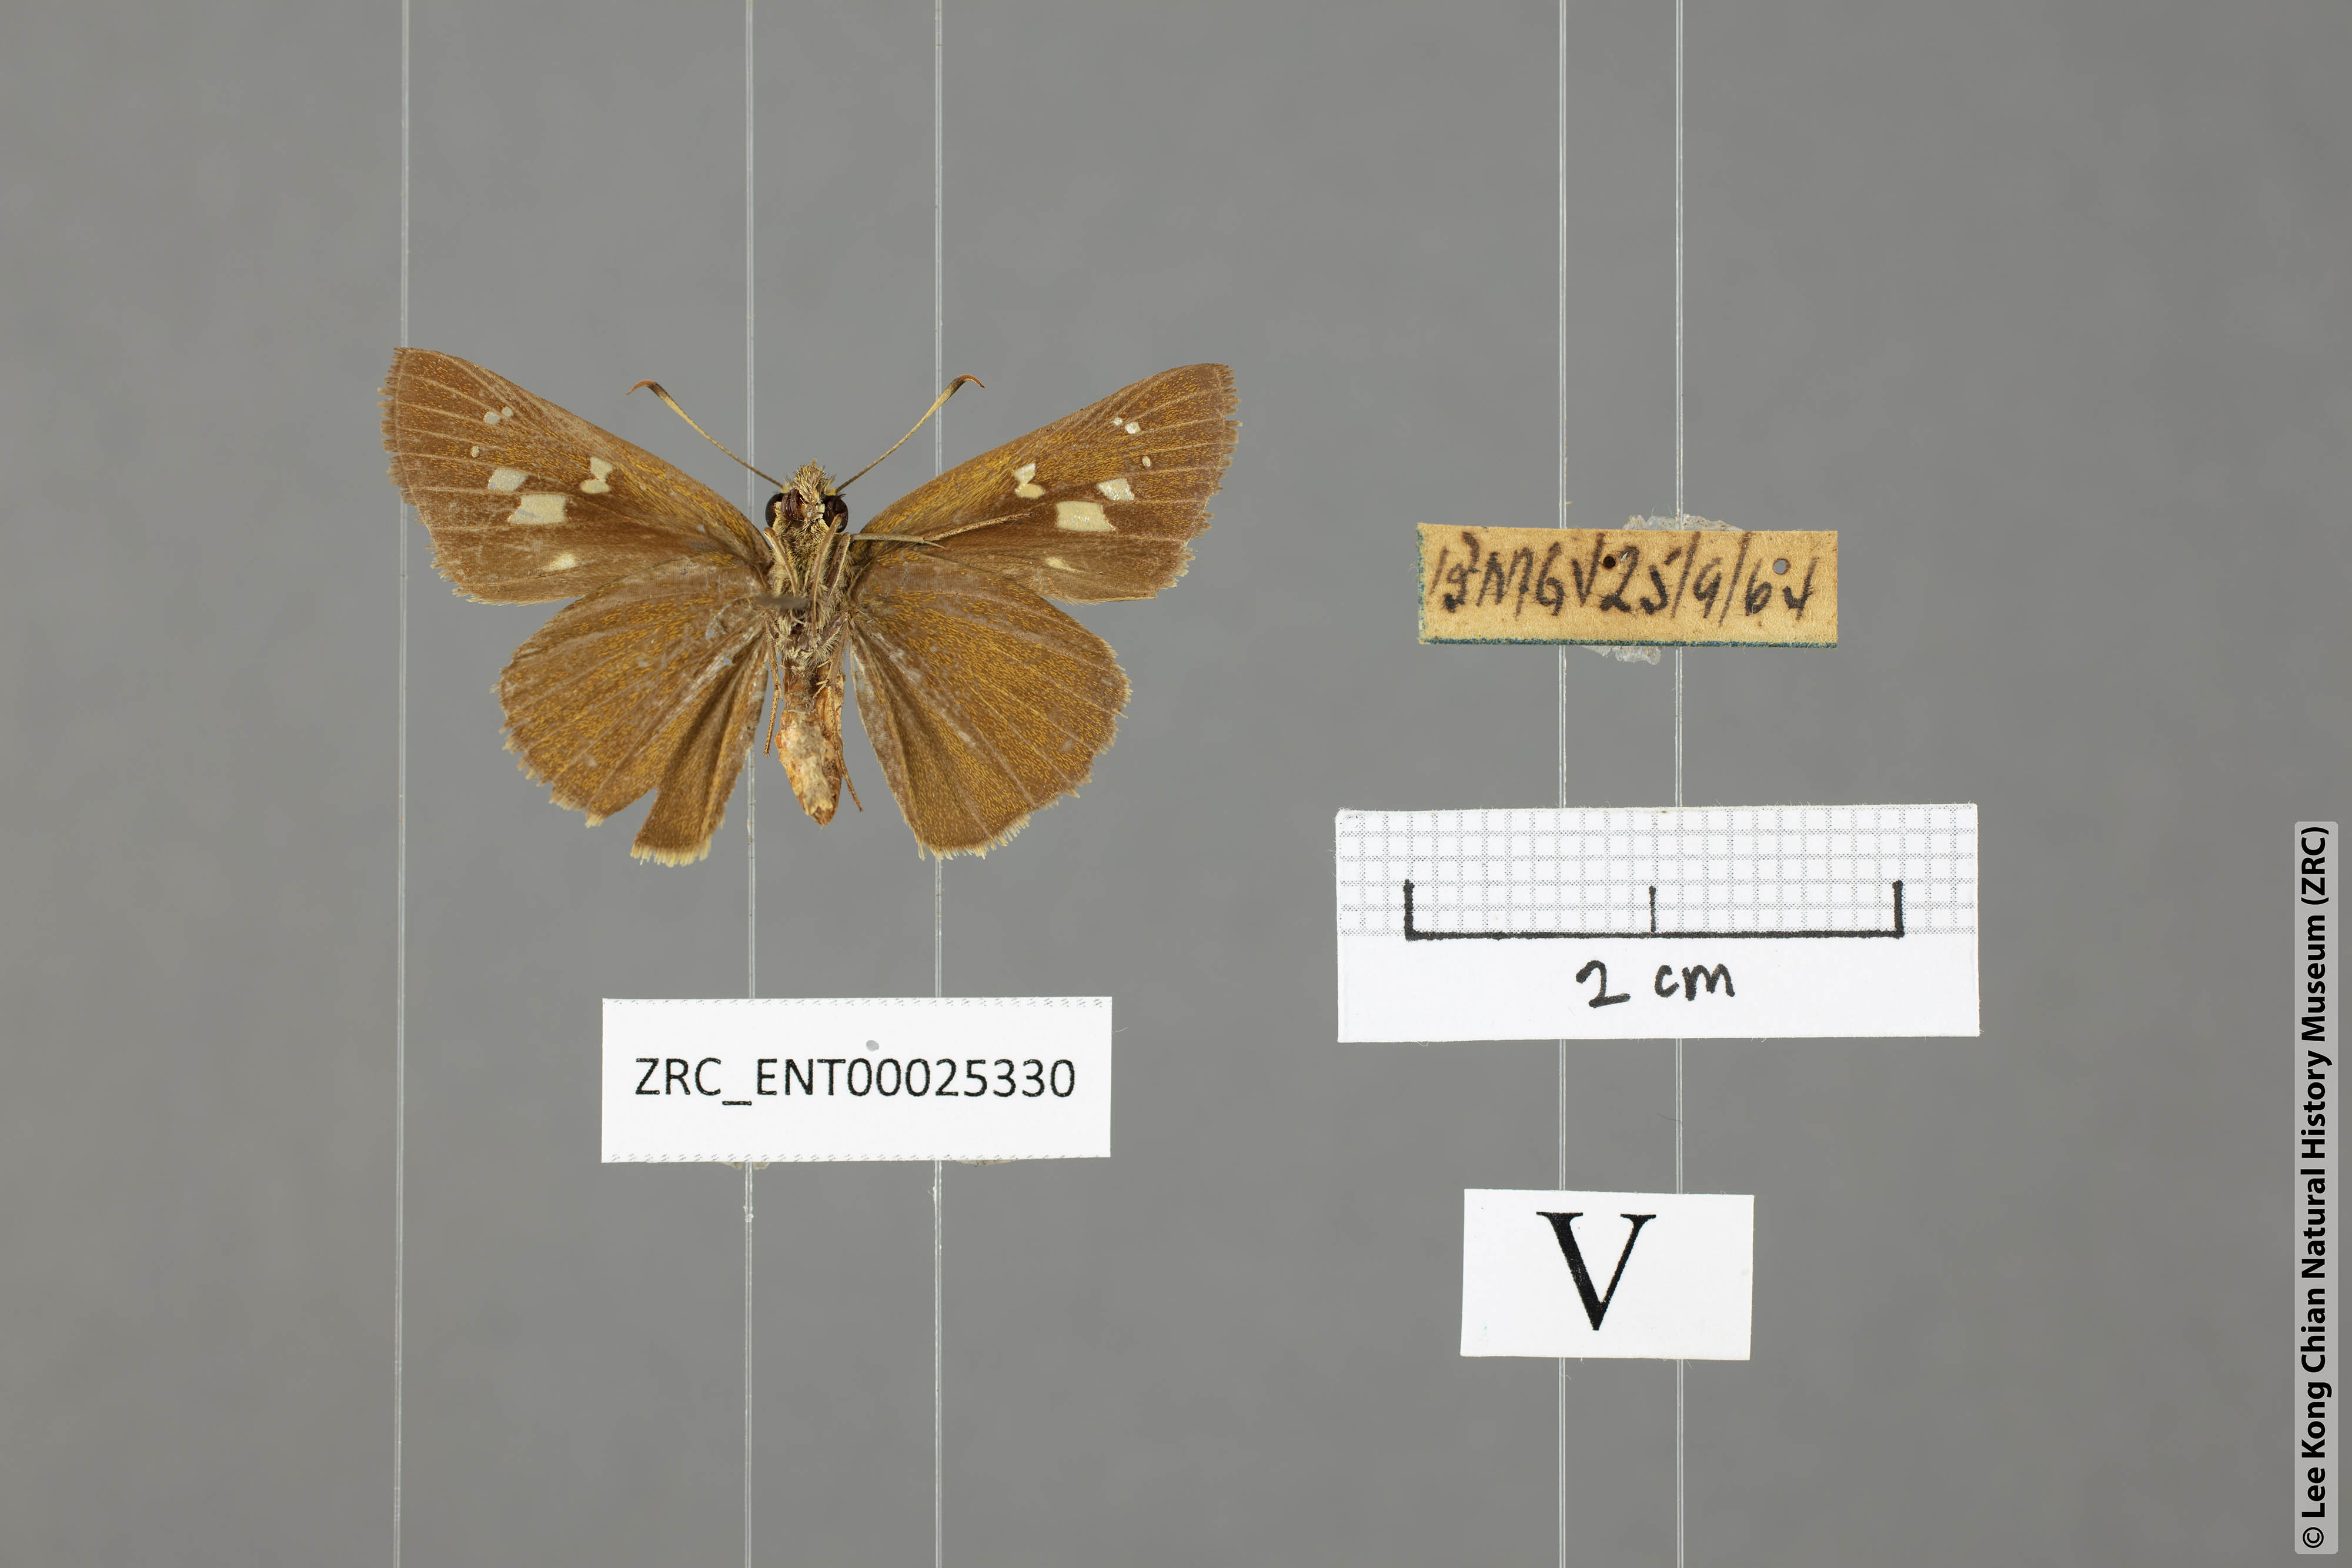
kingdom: Animalia
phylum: Arthropoda
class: Insecta
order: Lepidoptera
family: Hesperiidae
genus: Polytremis
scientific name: Polytremis lubricans
